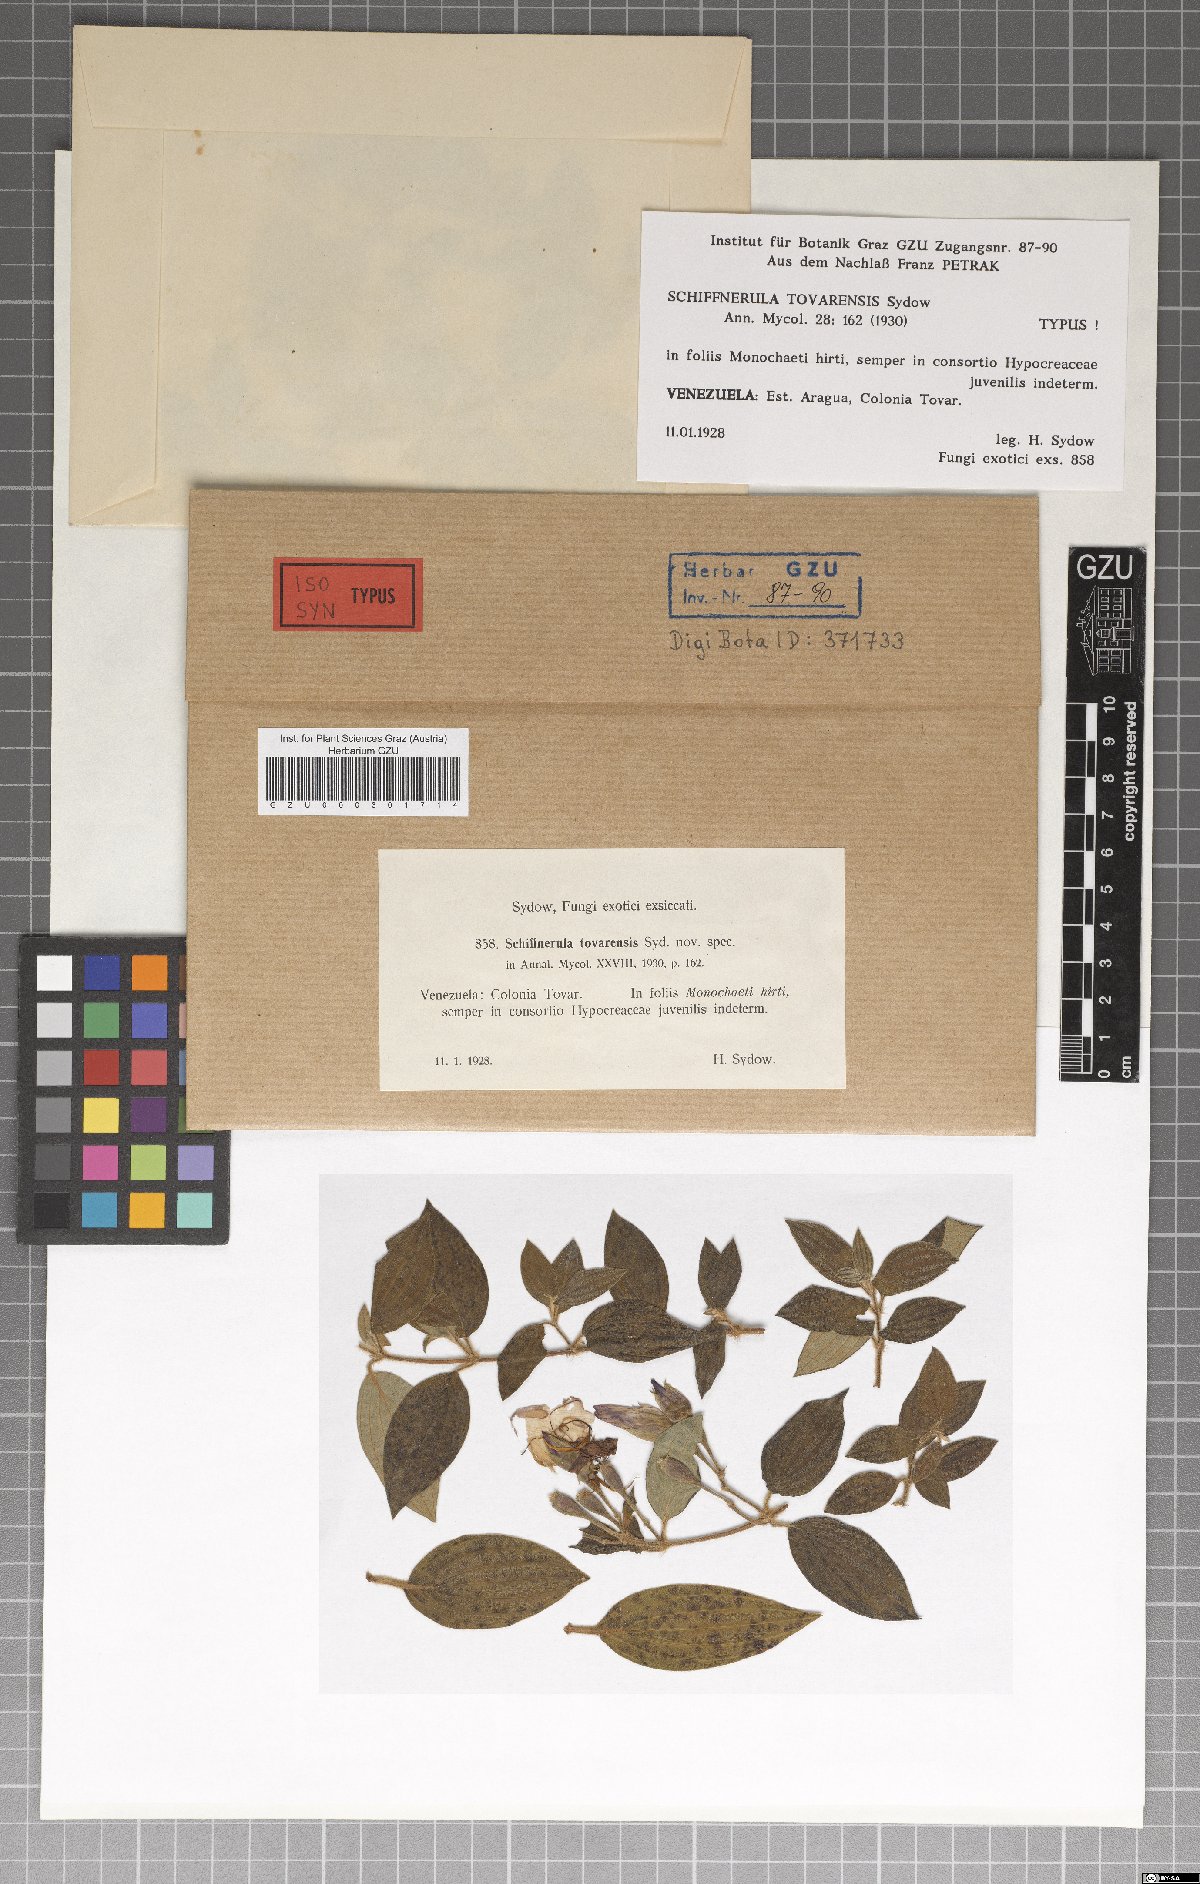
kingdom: Fungi
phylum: Ascomycota
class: Dothideomycetes
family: Englerulaceae
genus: Schiffnerula
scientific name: Schiffnerula tovarensis
